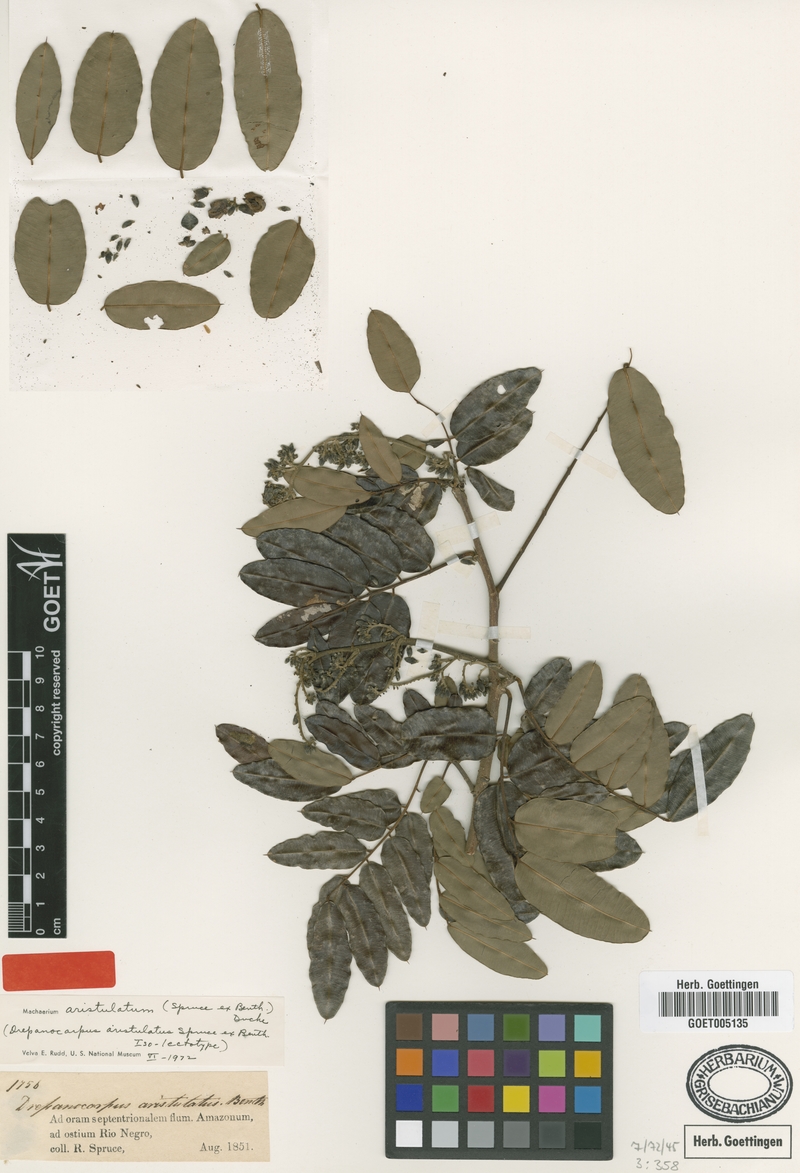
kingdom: Plantae
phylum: Tracheophyta
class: Magnoliopsida
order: Fabales
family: Fabaceae
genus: Machaerium
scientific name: Machaerium aristulatum
